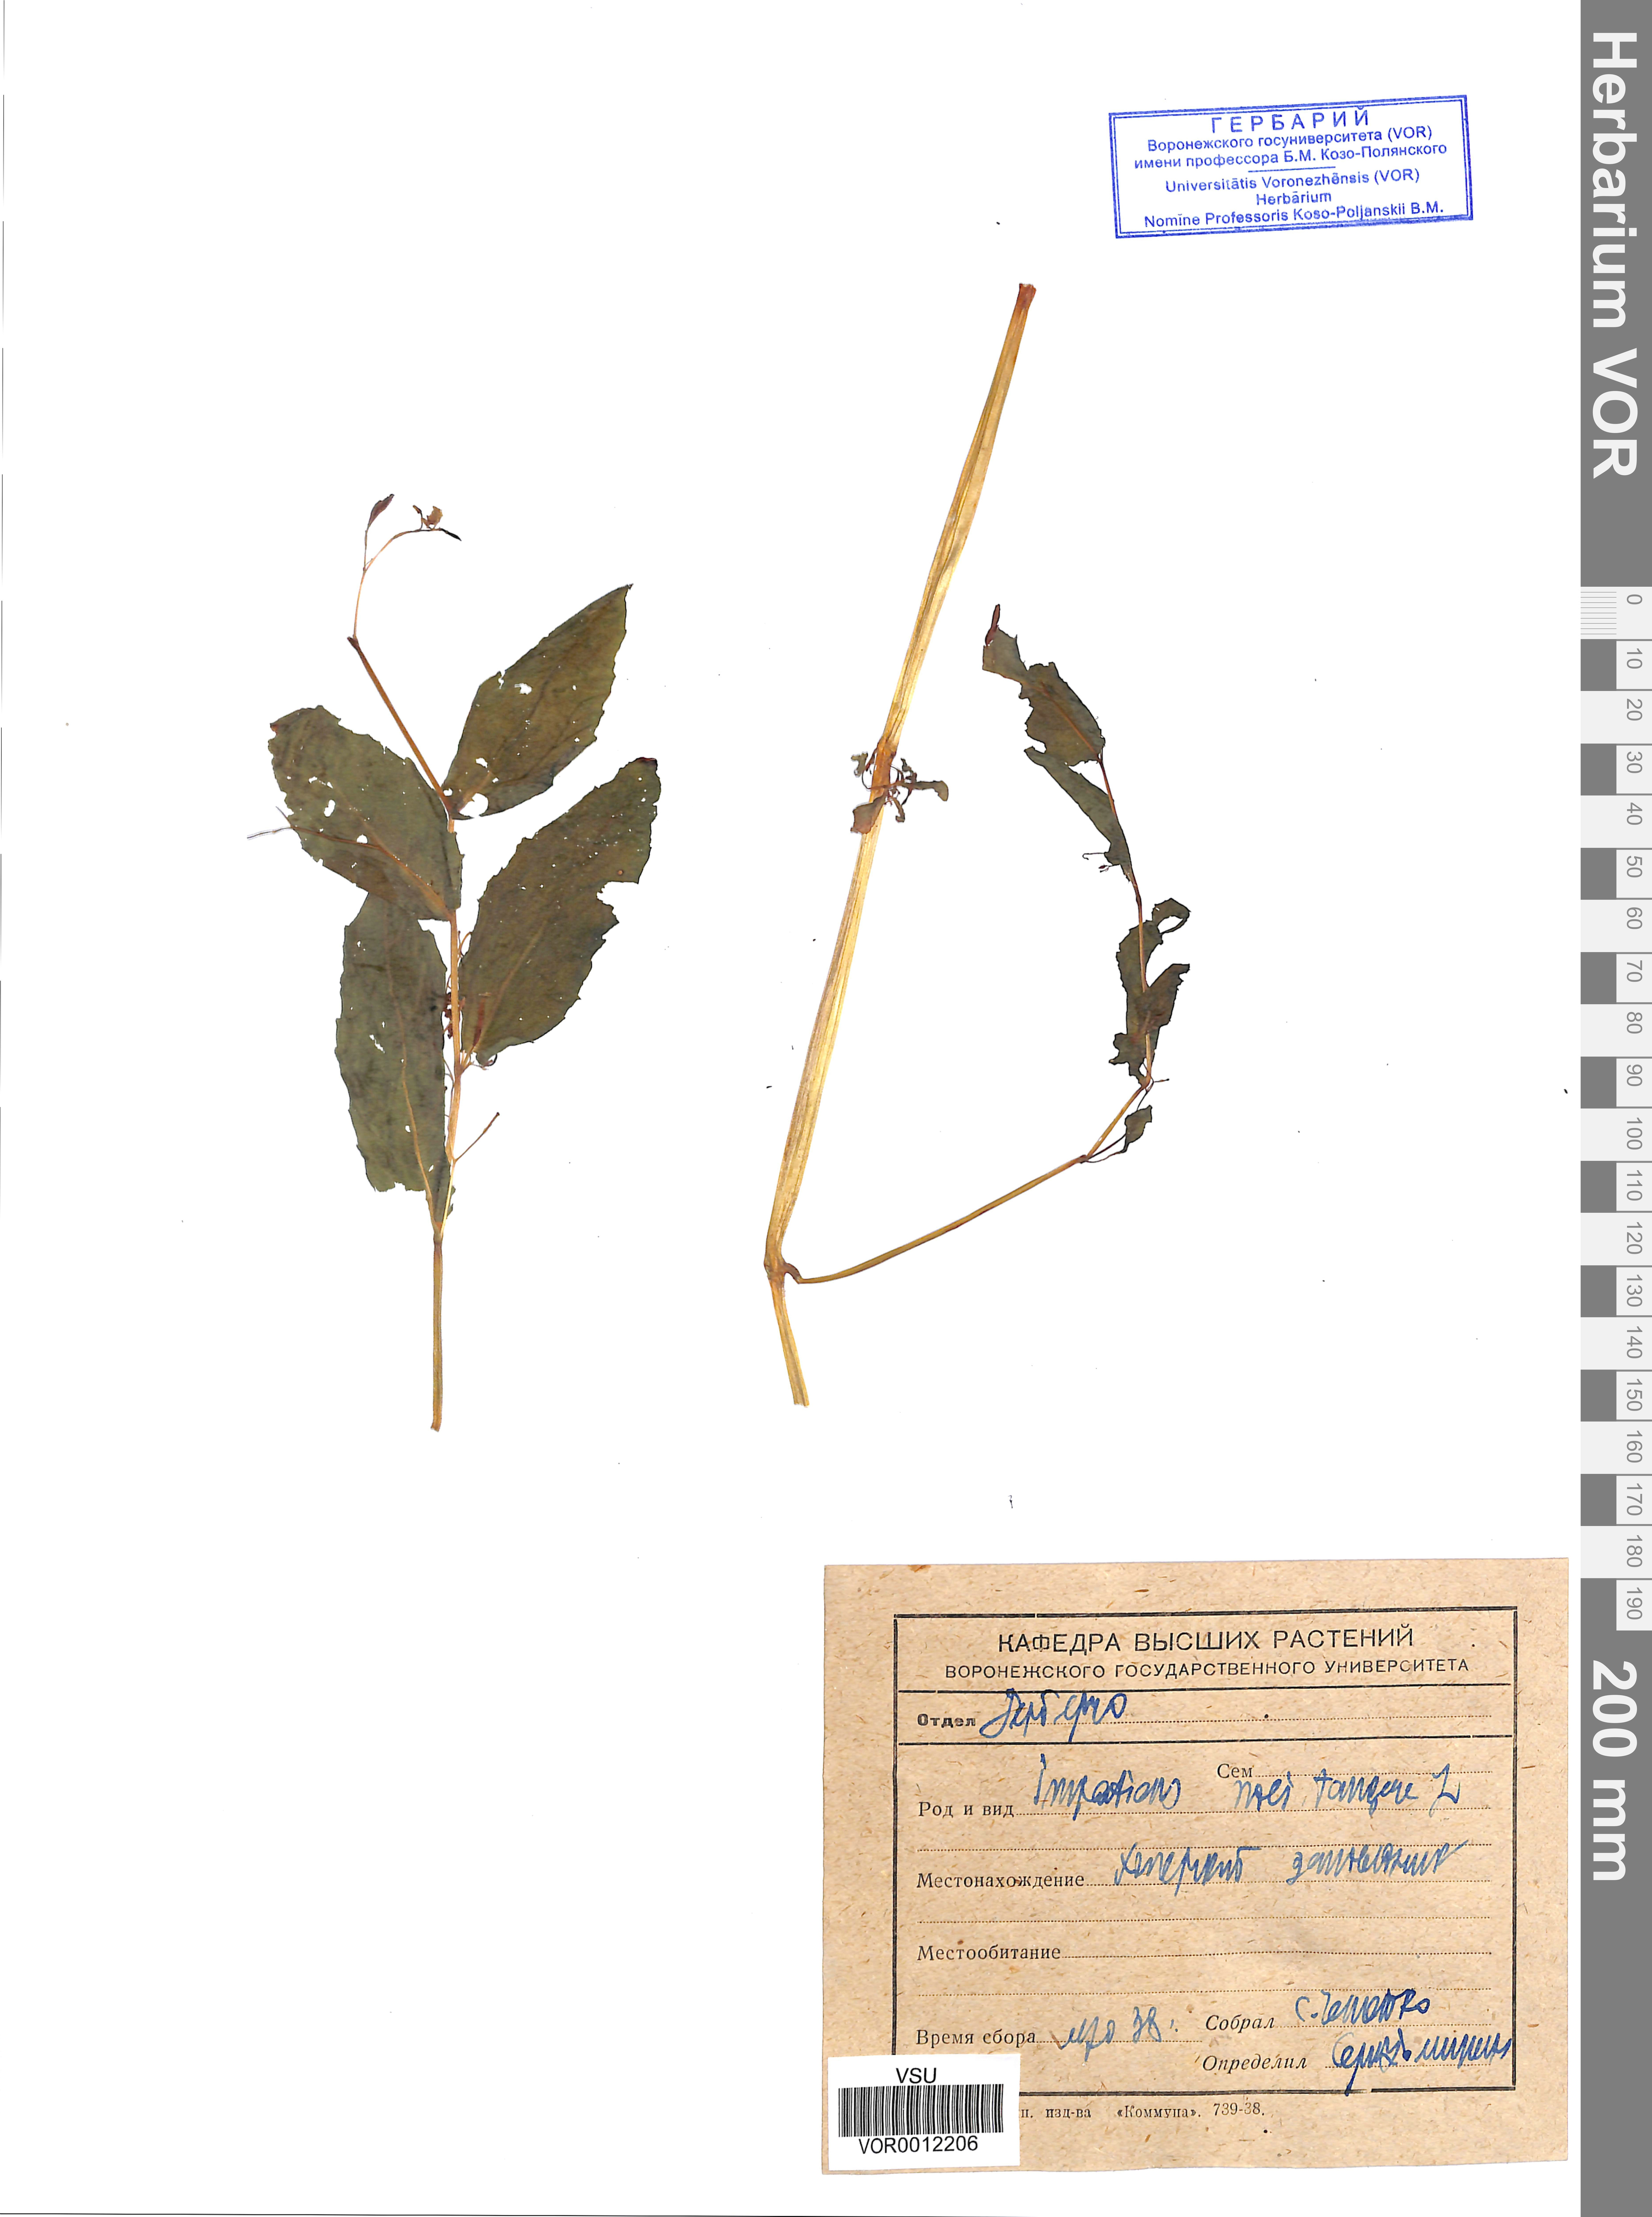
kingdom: Plantae
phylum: Tracheophyta
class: Magnoliopsida
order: Ericales
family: Balsaminaceae
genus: Impatiens
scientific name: Impatiens noli-tangere
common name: Touch-me-not balsam
